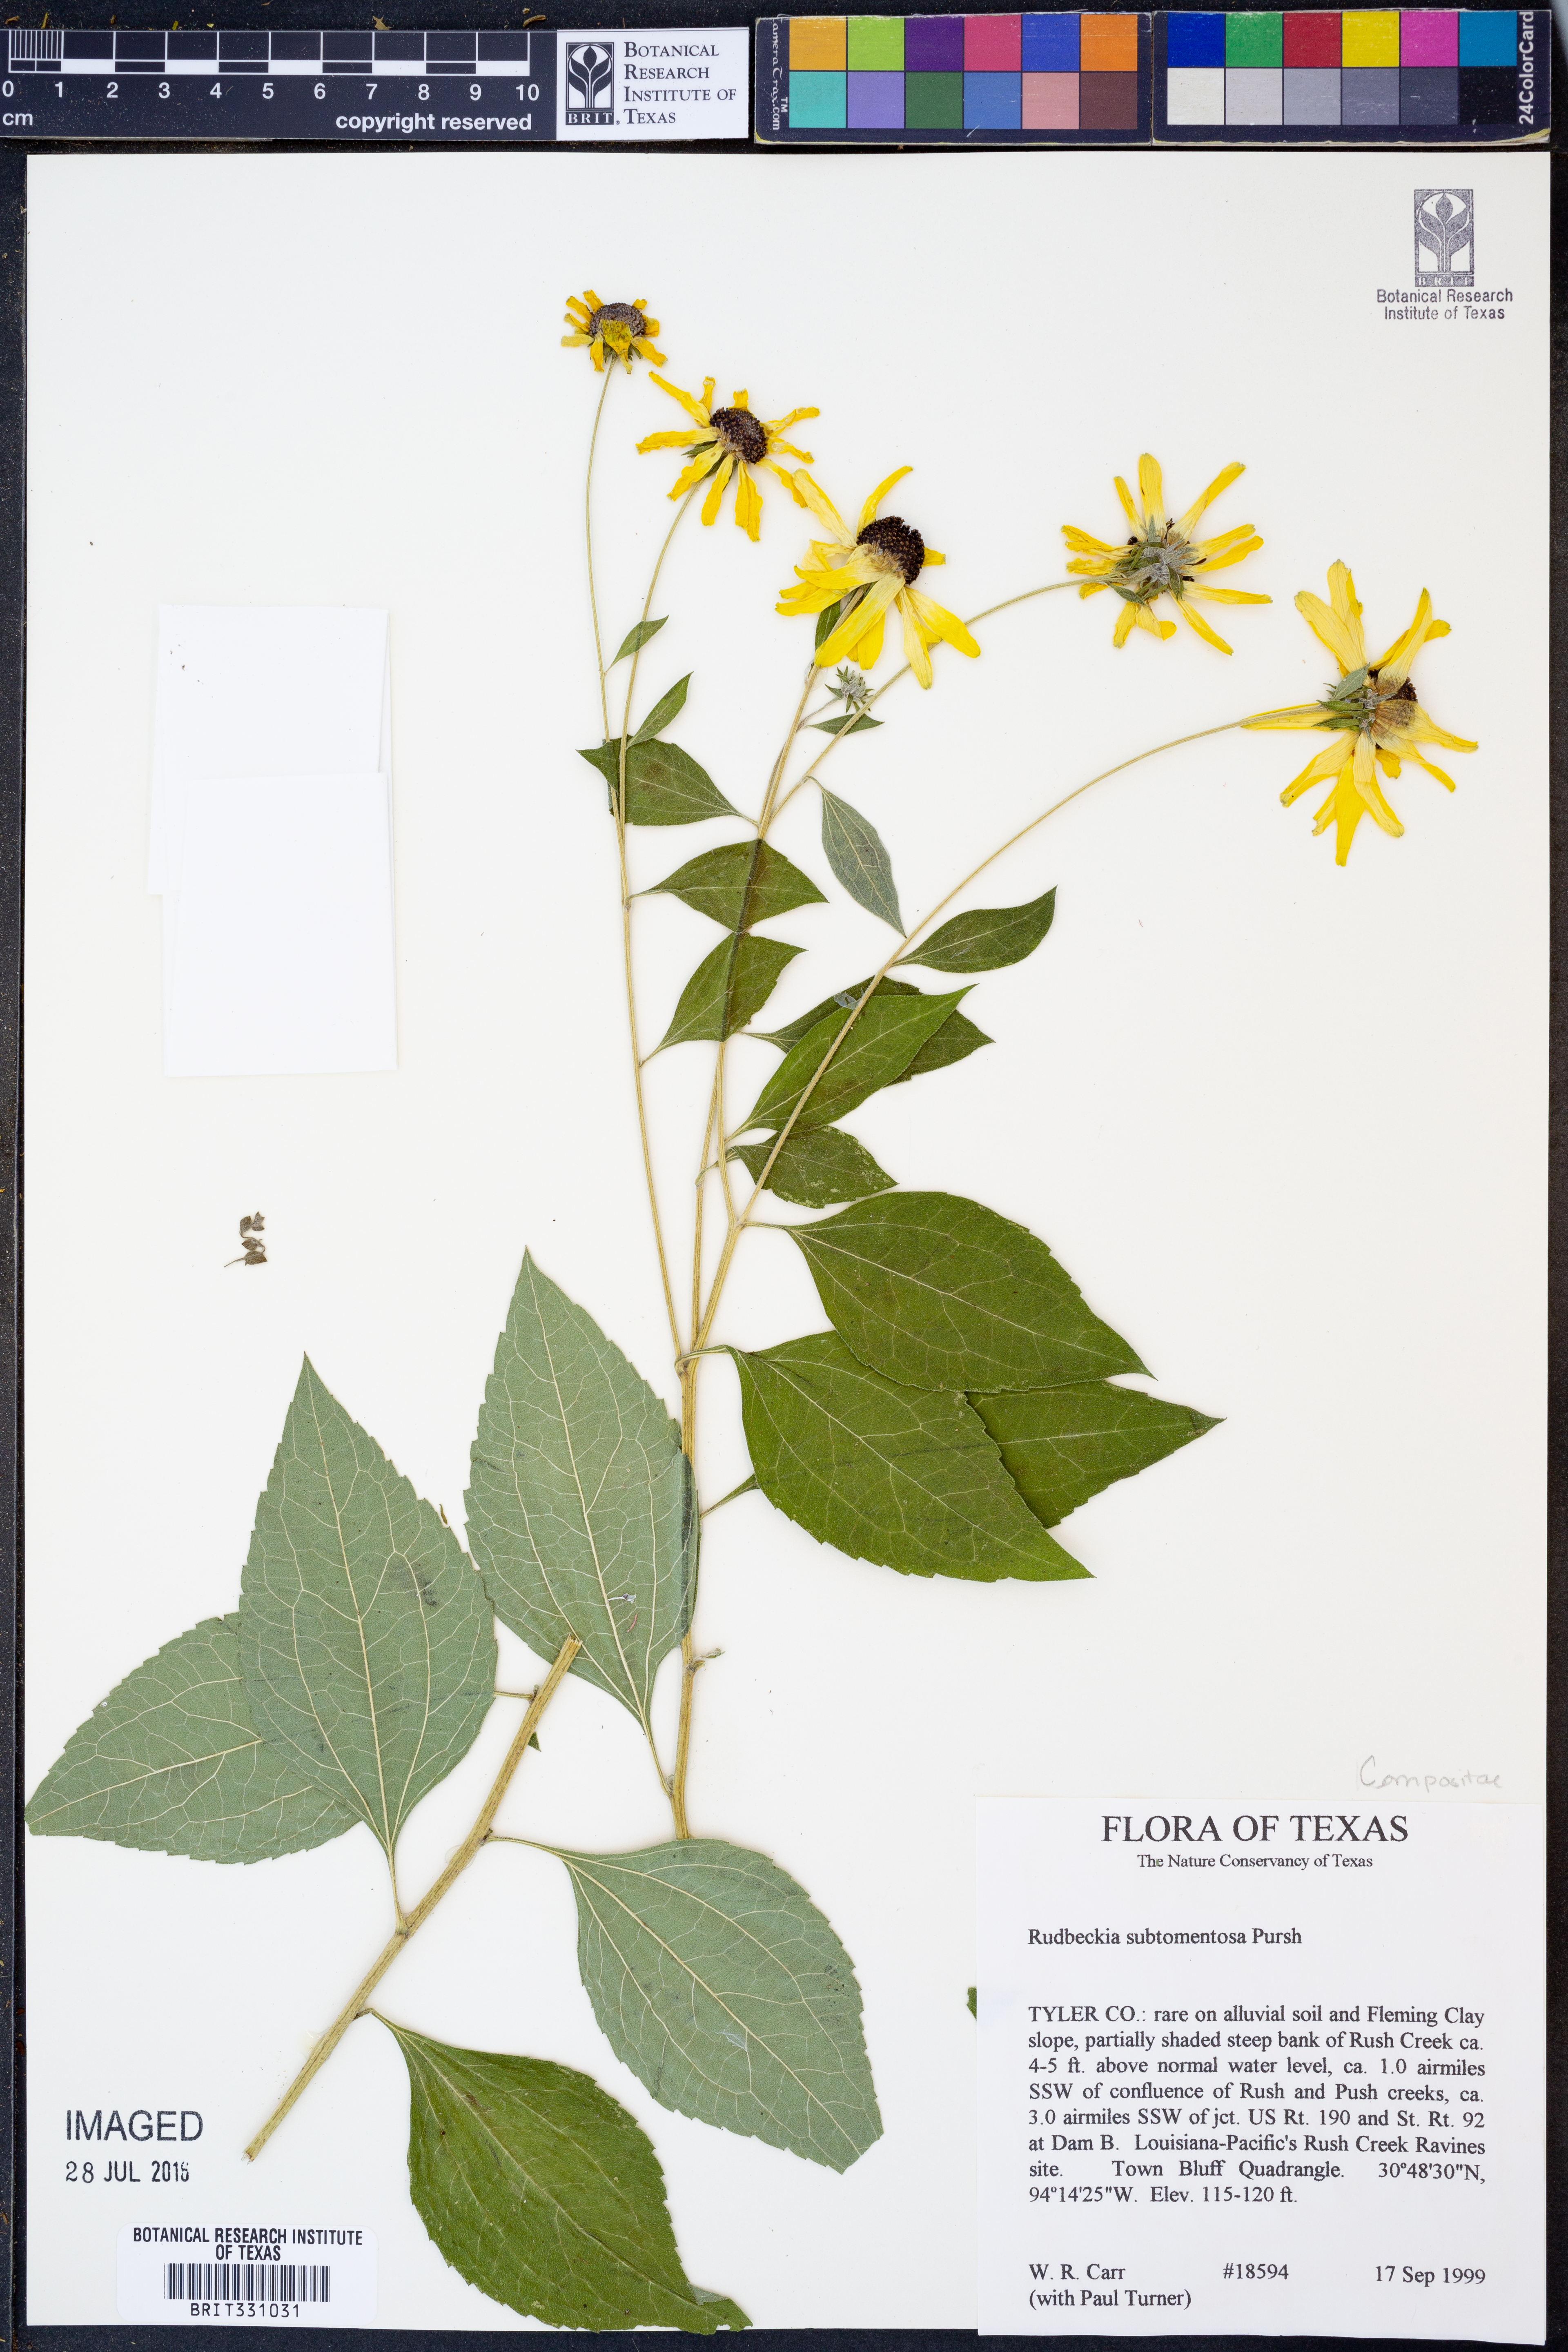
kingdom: Plantae
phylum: Tracheophyta
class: Magnoliopsida
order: Asterales
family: Asteraceae
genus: Rudbeckia
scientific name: Rudbeckia subtomentosa
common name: Sweet coneflower
